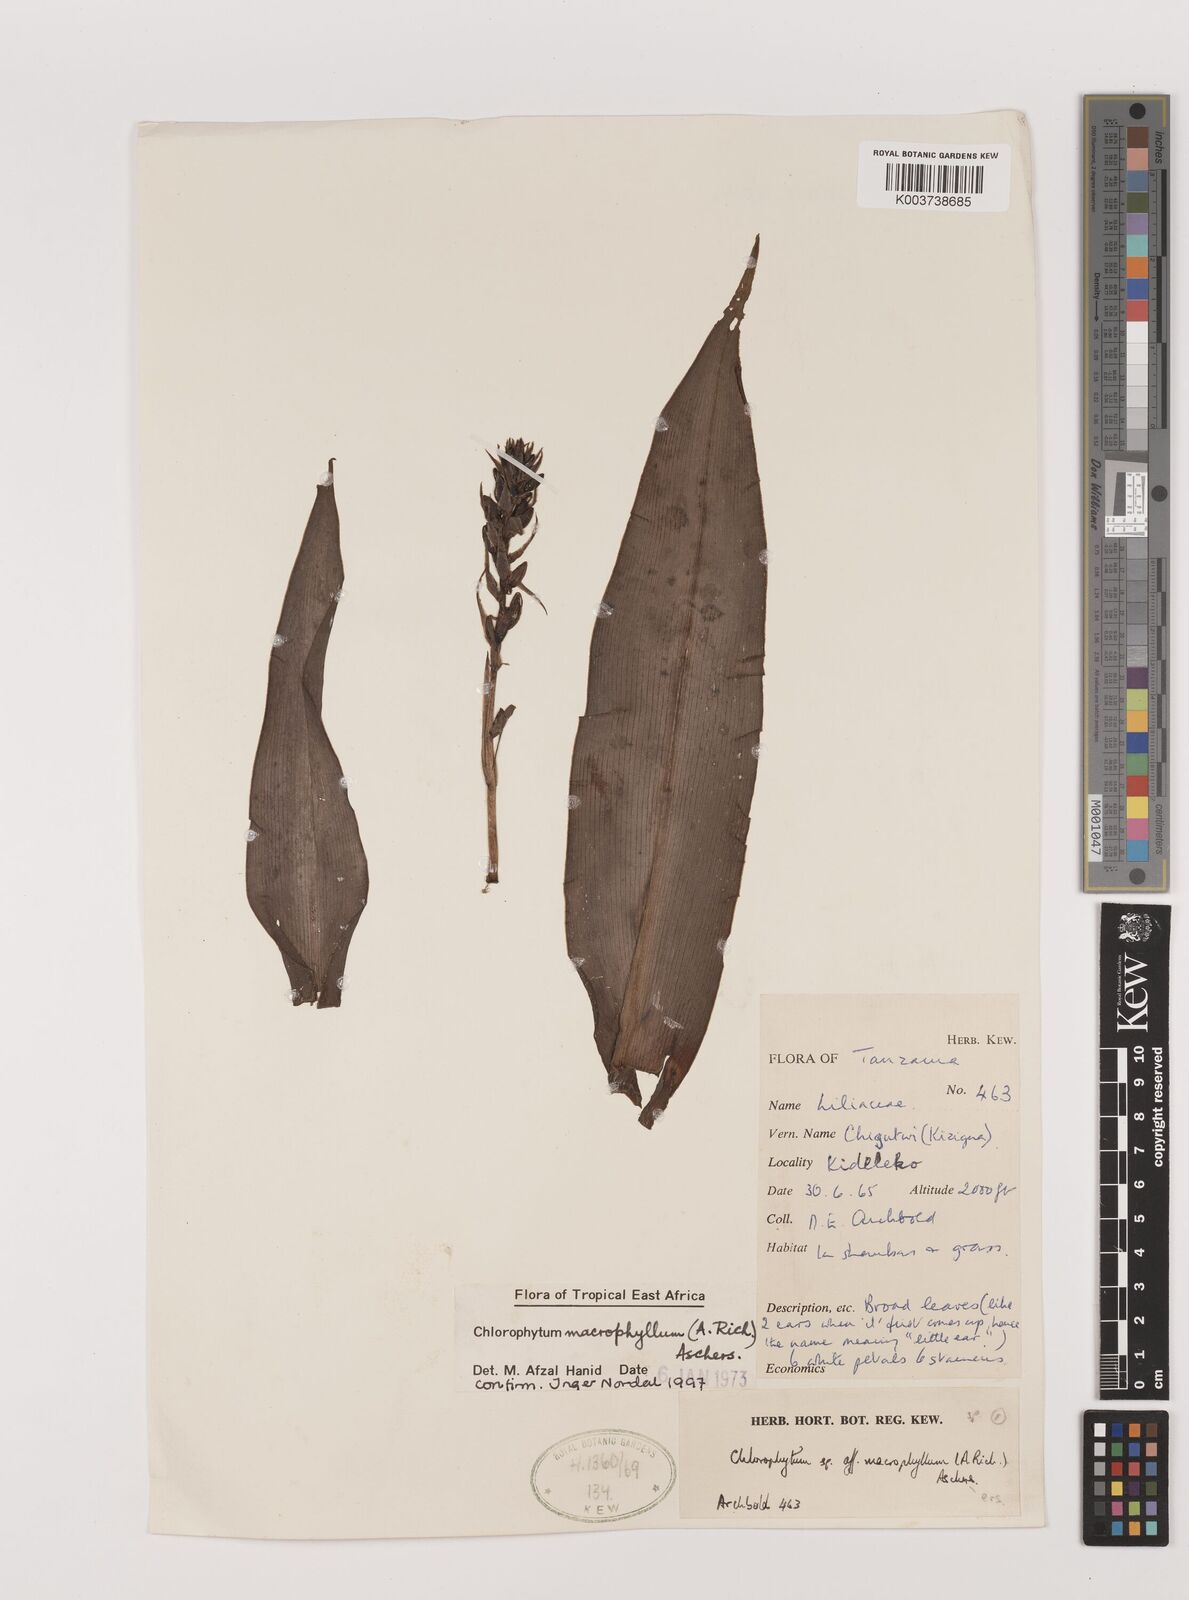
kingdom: Plantae
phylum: Tracheophyta
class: Liliopsida
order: Asparagales
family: Asparagaceae
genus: Chlorophytum
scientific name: Chlorophytum macrophyllum
